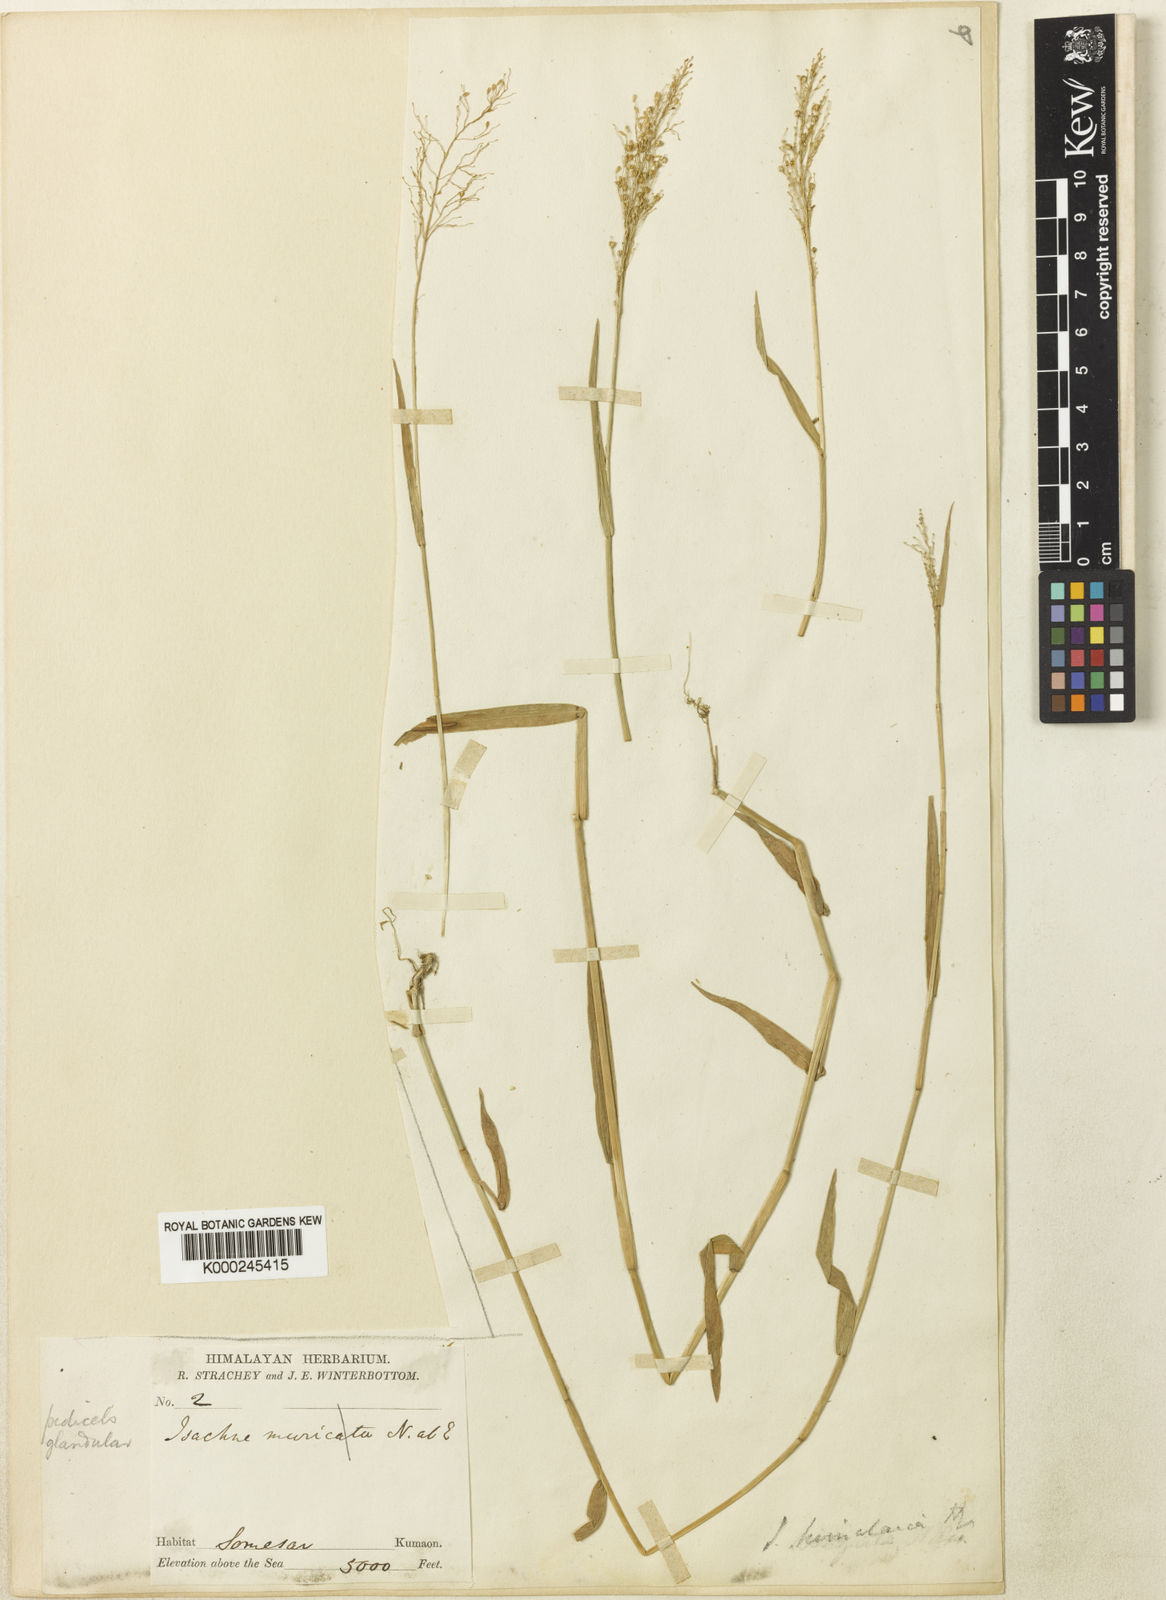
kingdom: Plantae
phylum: Tracheophyta
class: Liliopsida
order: Poales
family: Poaceae
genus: Isachne
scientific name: Isachne himalaica
